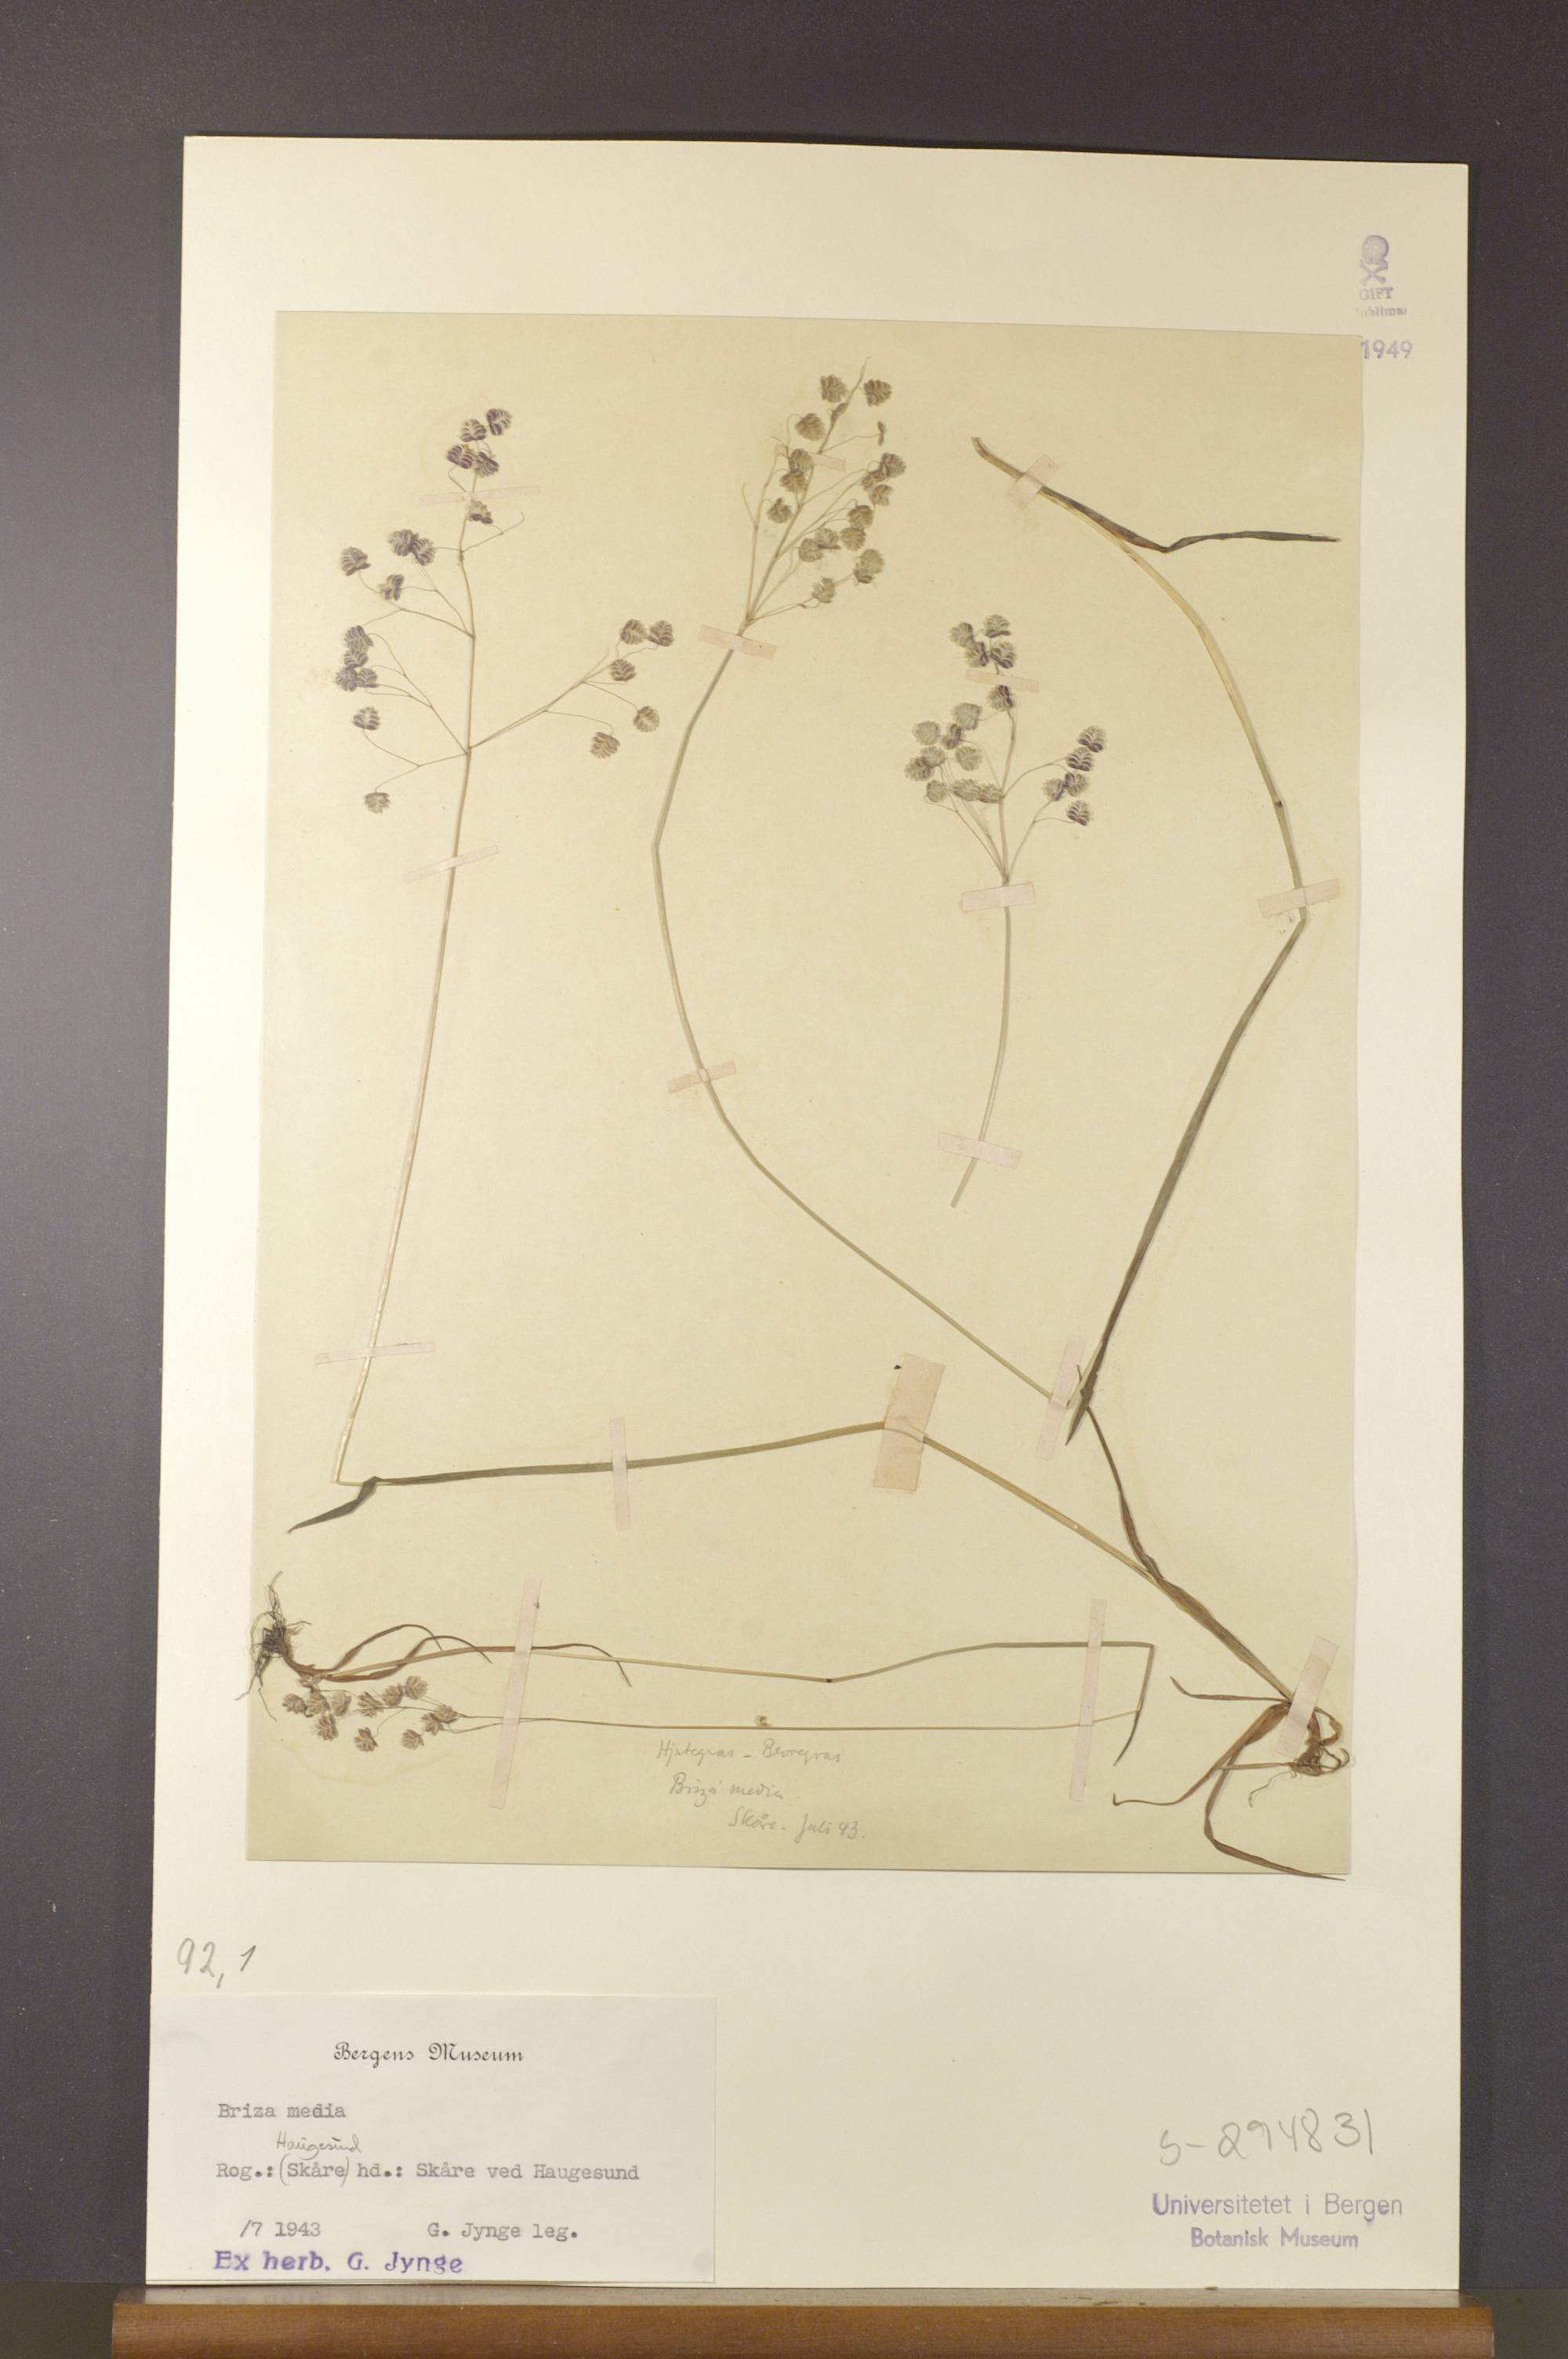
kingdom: Plantae
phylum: Tracheophyta
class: Liliopsida
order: Poales
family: Poaceae
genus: Briza
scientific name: Briza media
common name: Quaking grass
